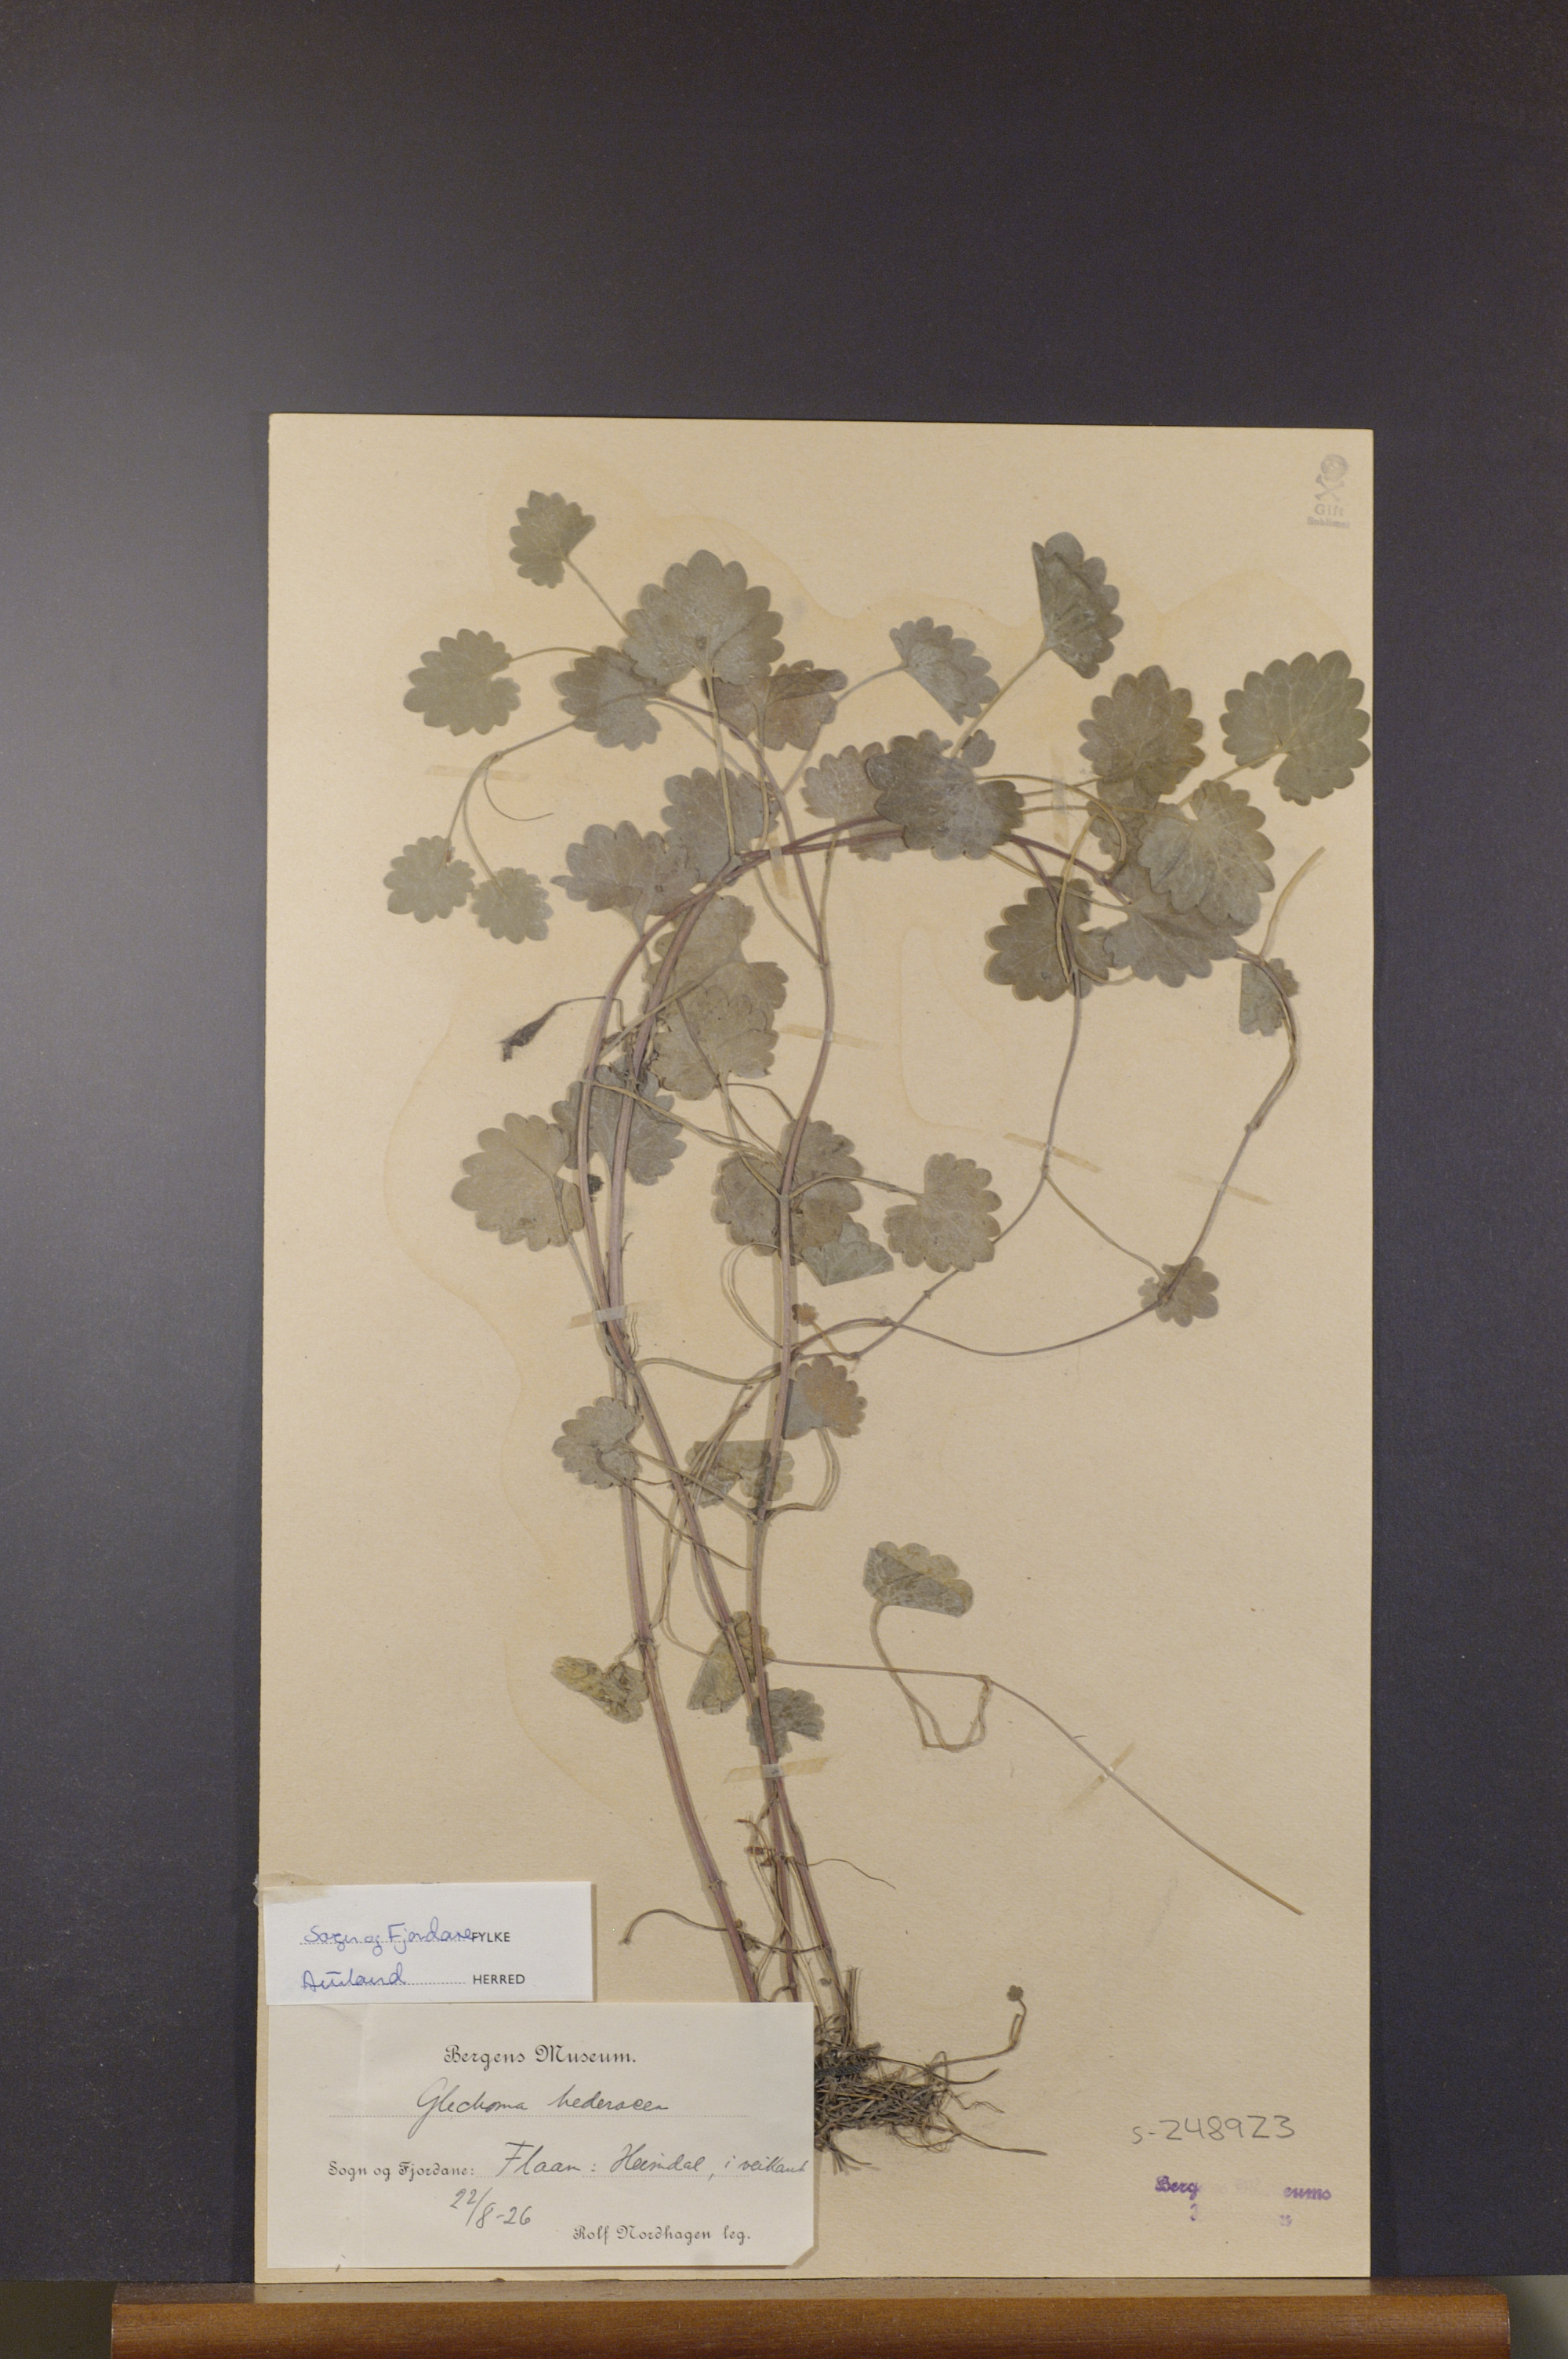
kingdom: Plantae
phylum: Tracheophyta
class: Magnoliopsida
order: Lamiales
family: Lamiaceae
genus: Glechoma
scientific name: Glechoma hederacea
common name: Ground ivy
